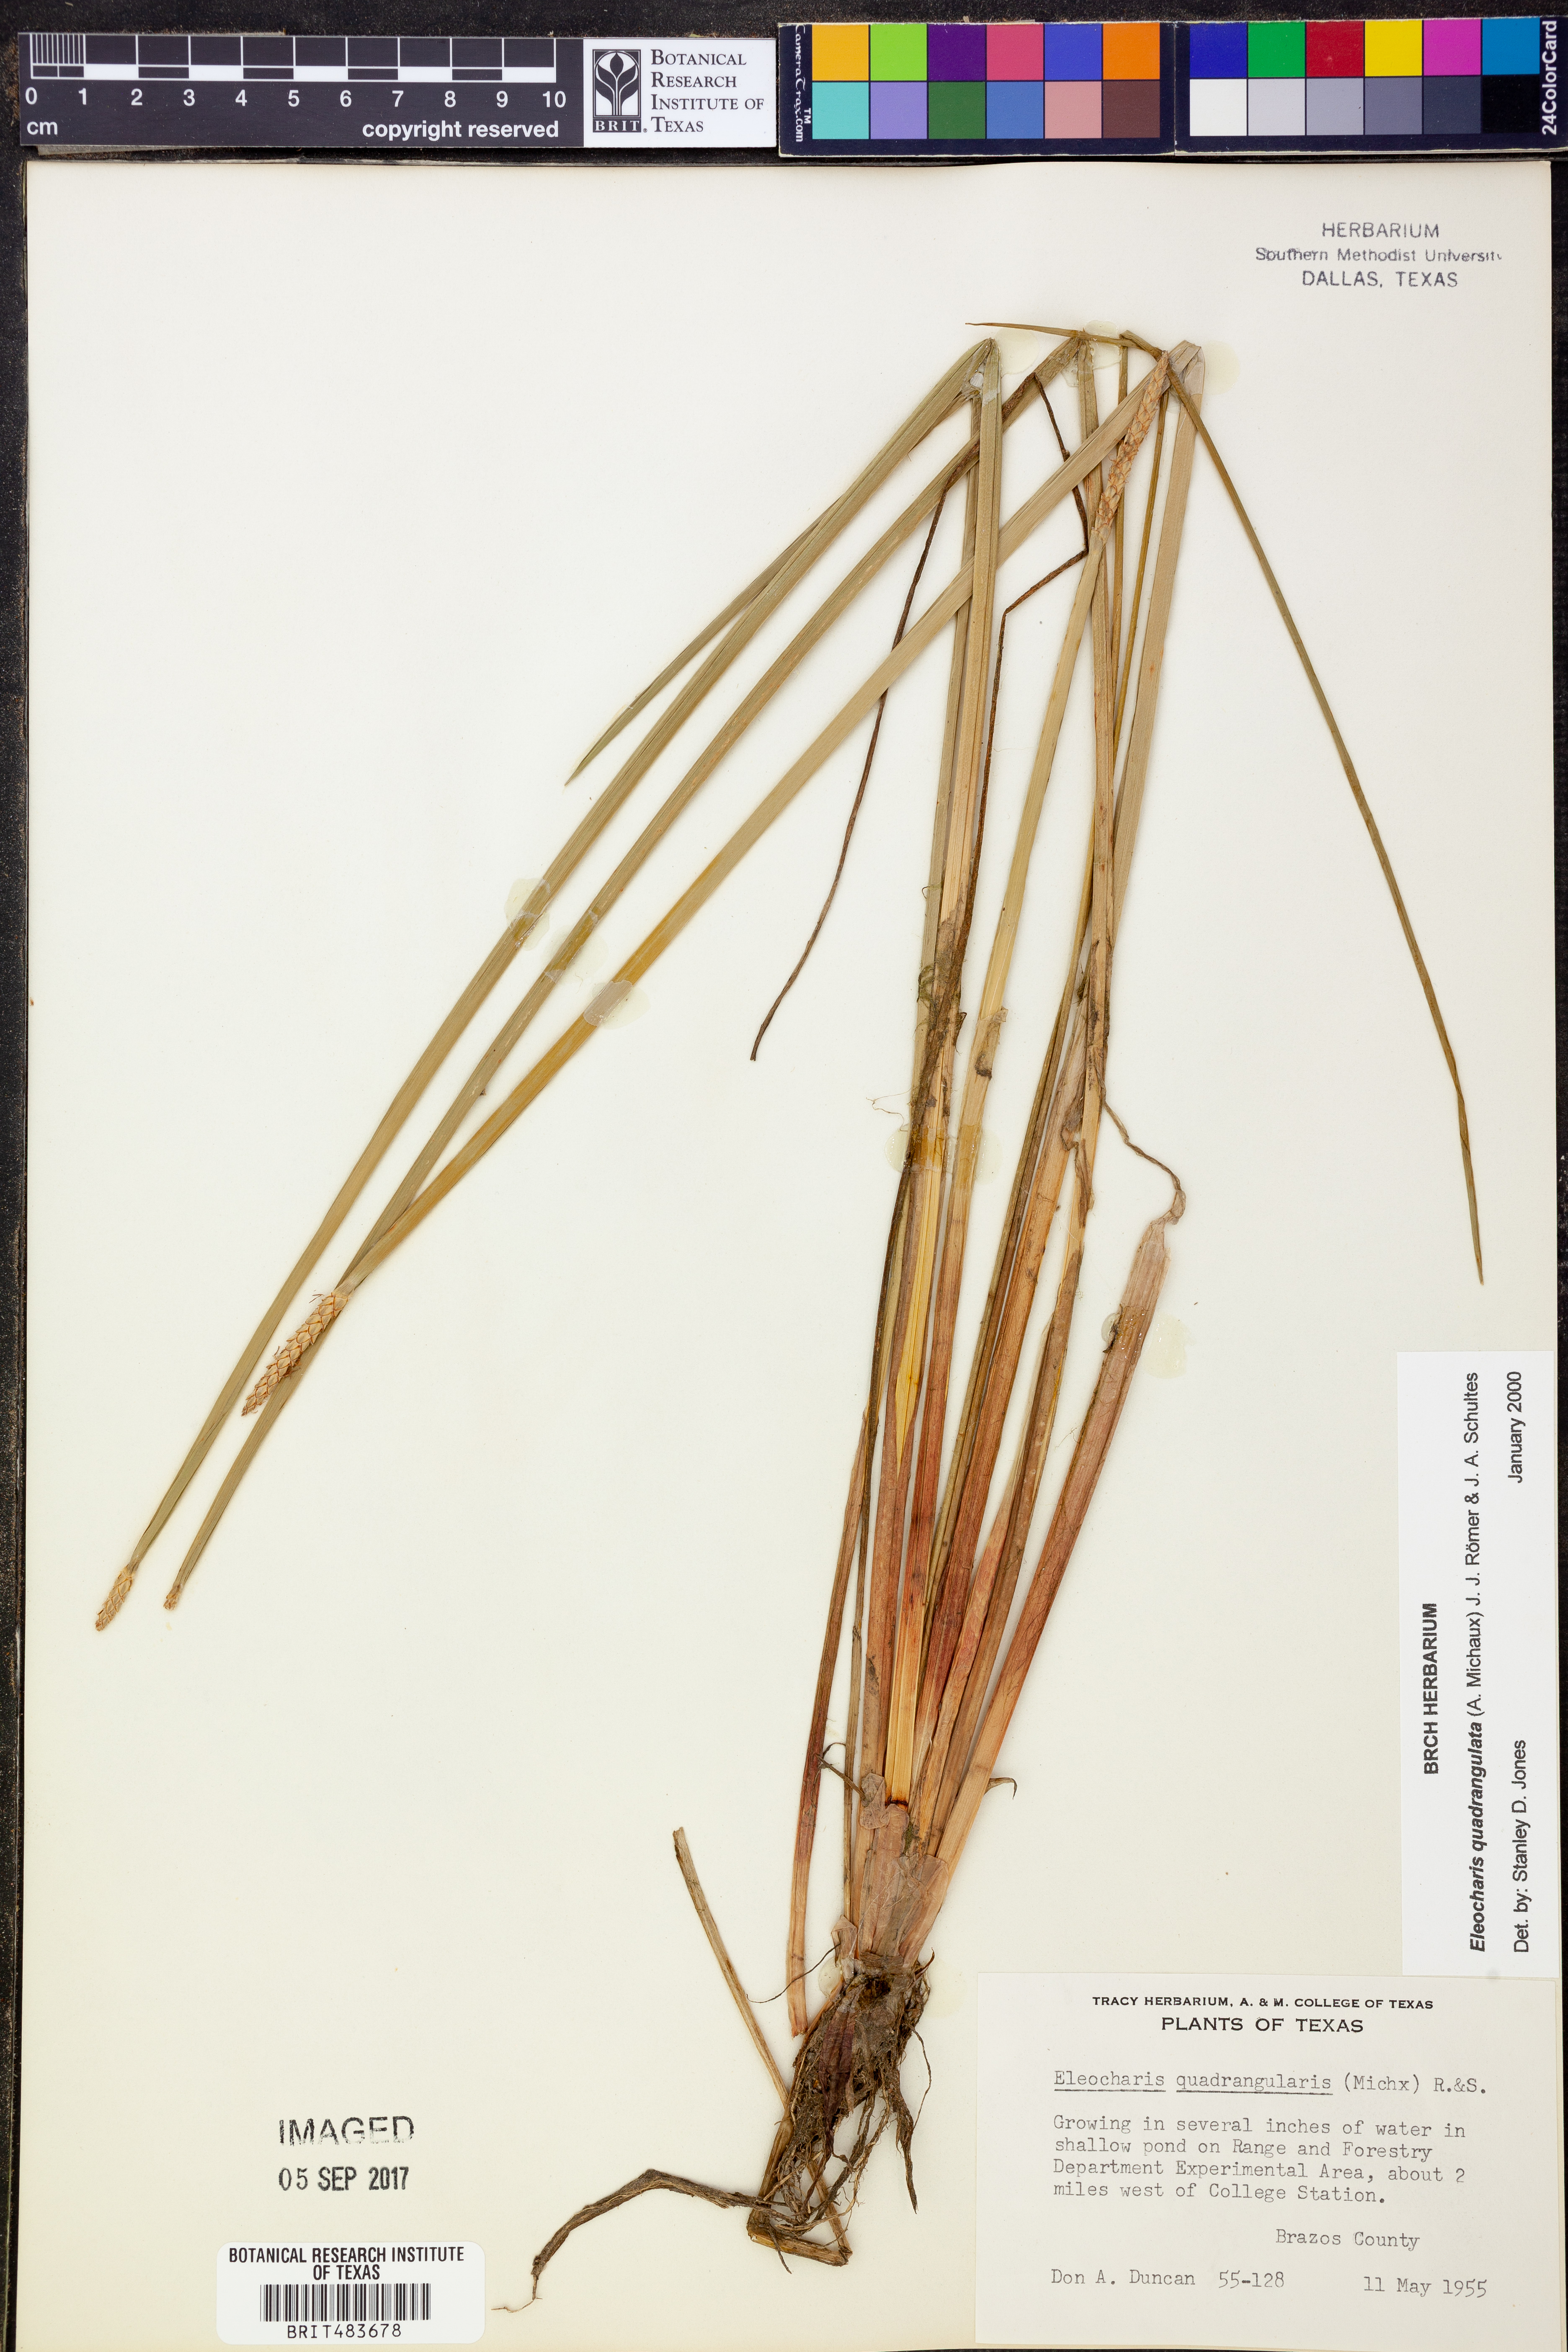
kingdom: Plantae
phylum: Tracheophyta
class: Liliopsida
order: Poales
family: Cyperaceae
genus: Eleocharis
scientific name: Eleocharis quadrangulata
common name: Square-stem spike-rush
